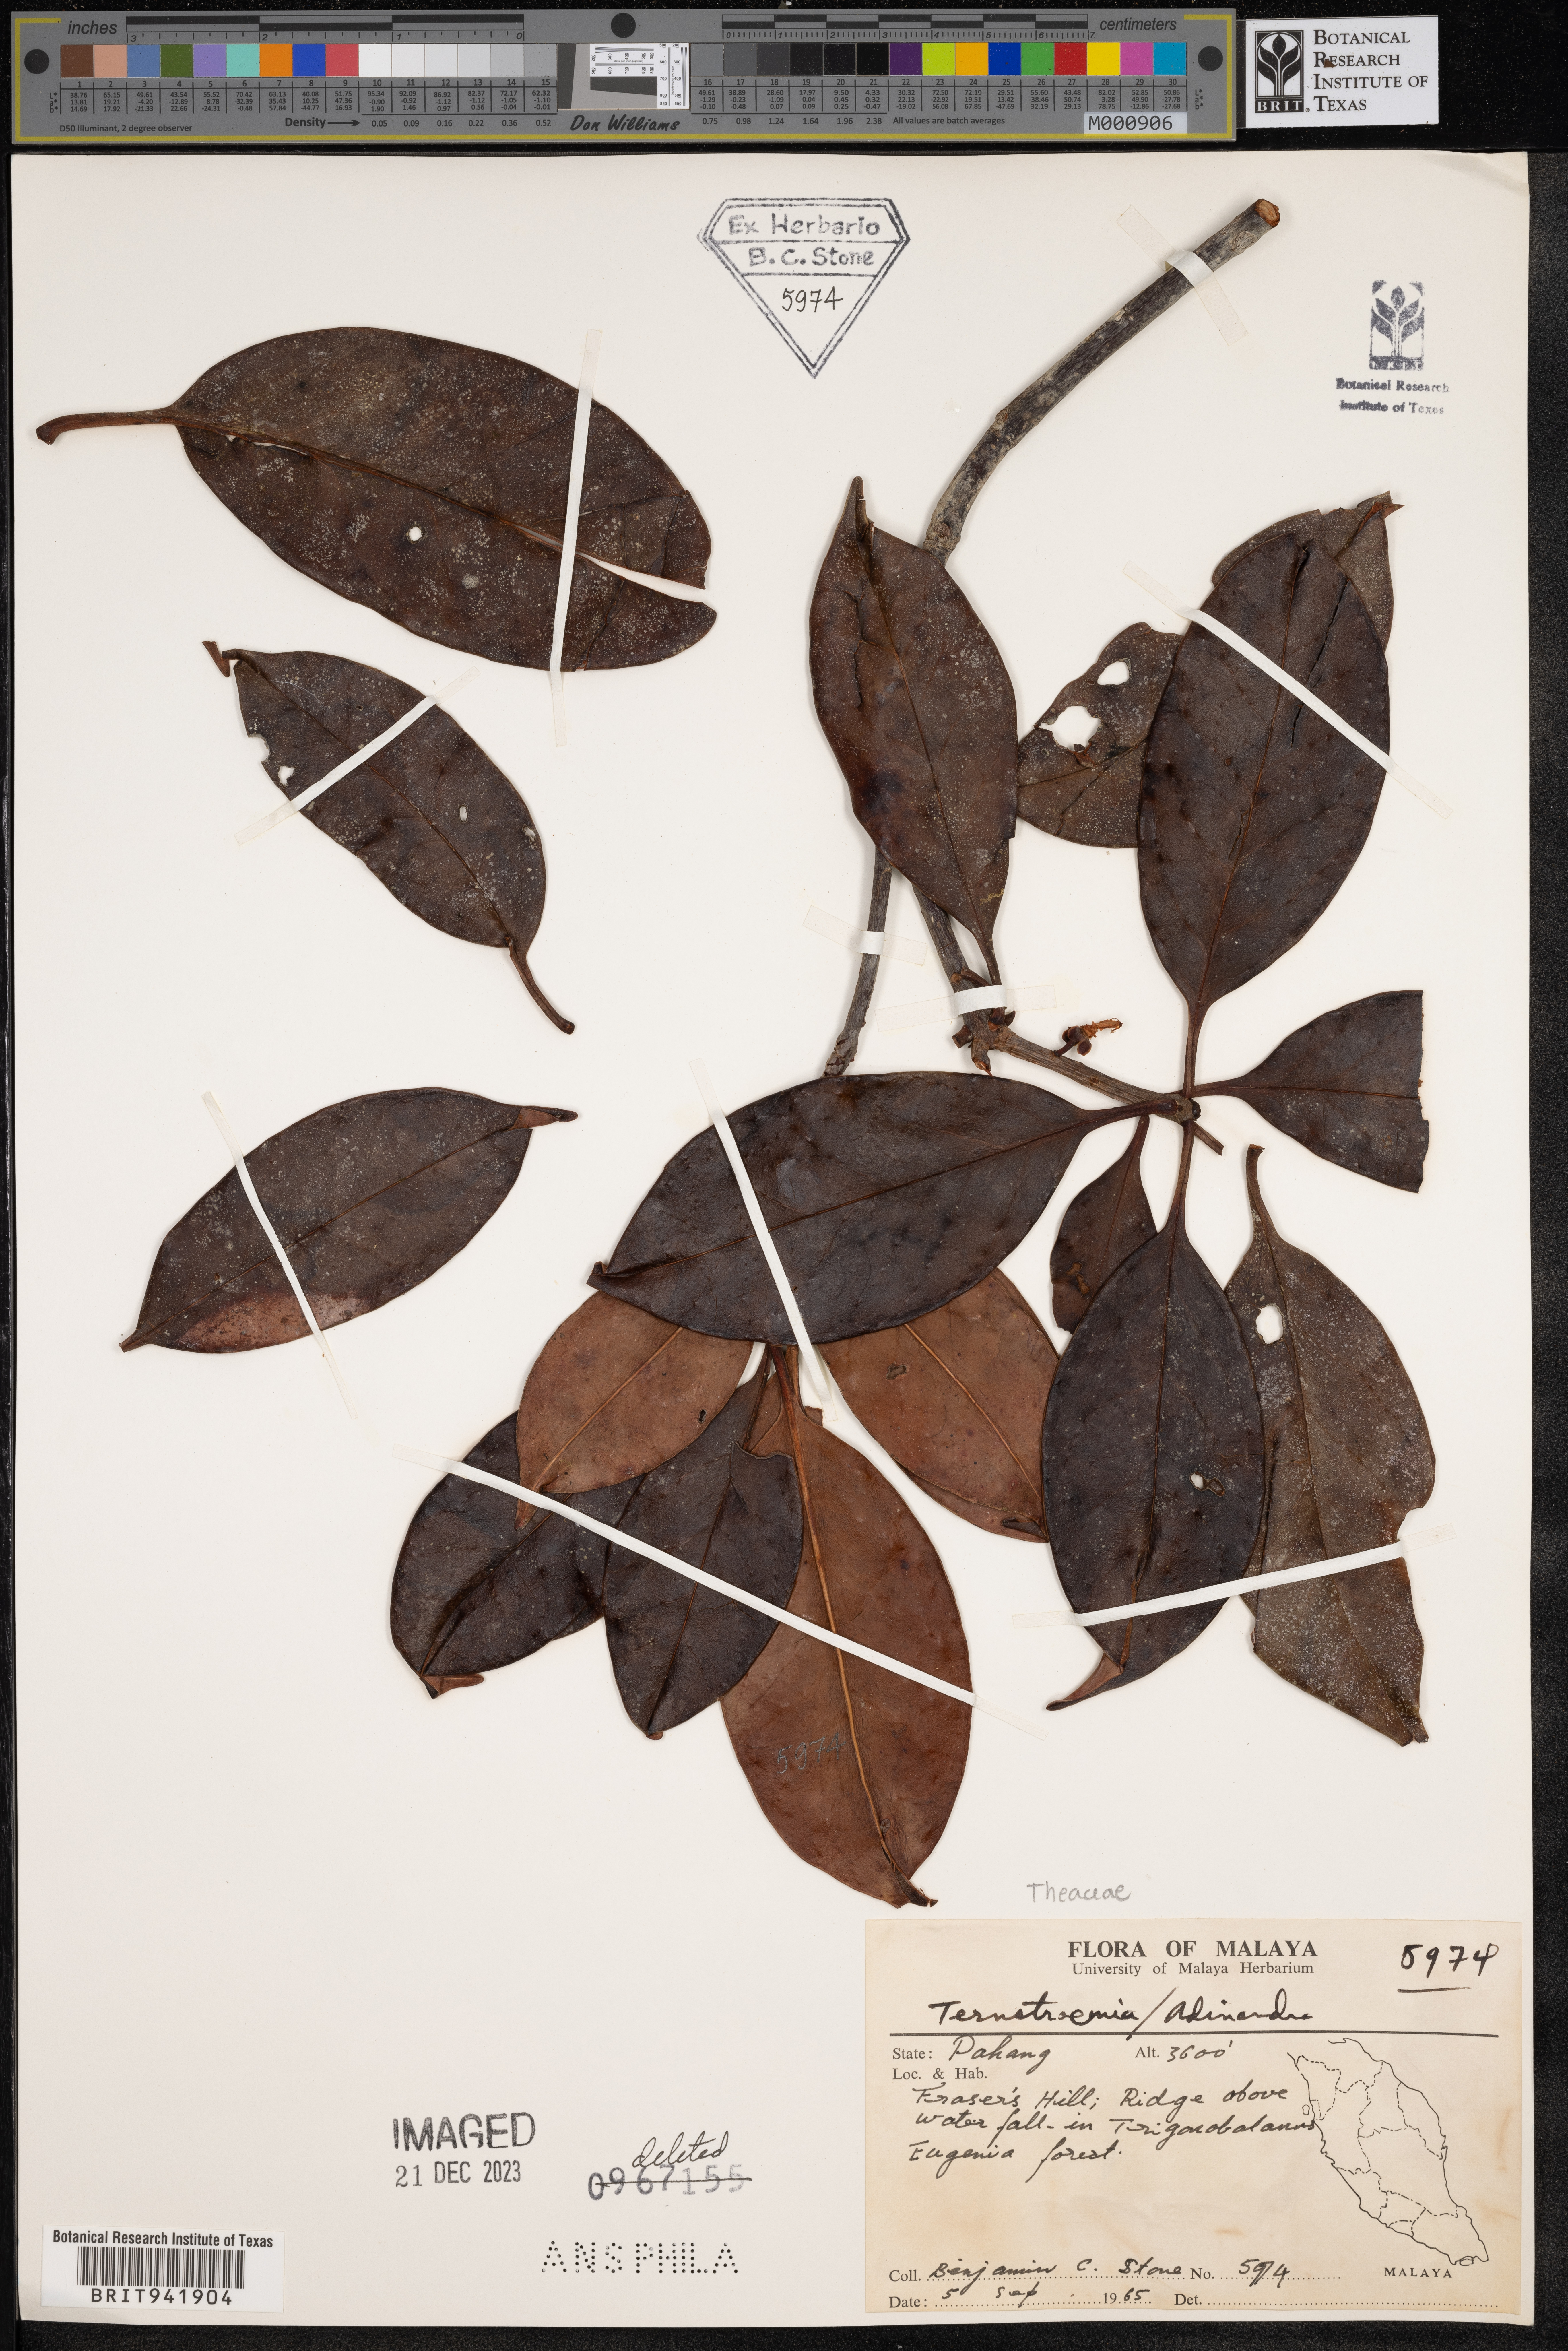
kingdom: Plantae
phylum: Tracheophyta
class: Magnoliopsida
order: Ericales
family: Pentaphylacaceae
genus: Adinandra
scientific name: Adinandra
